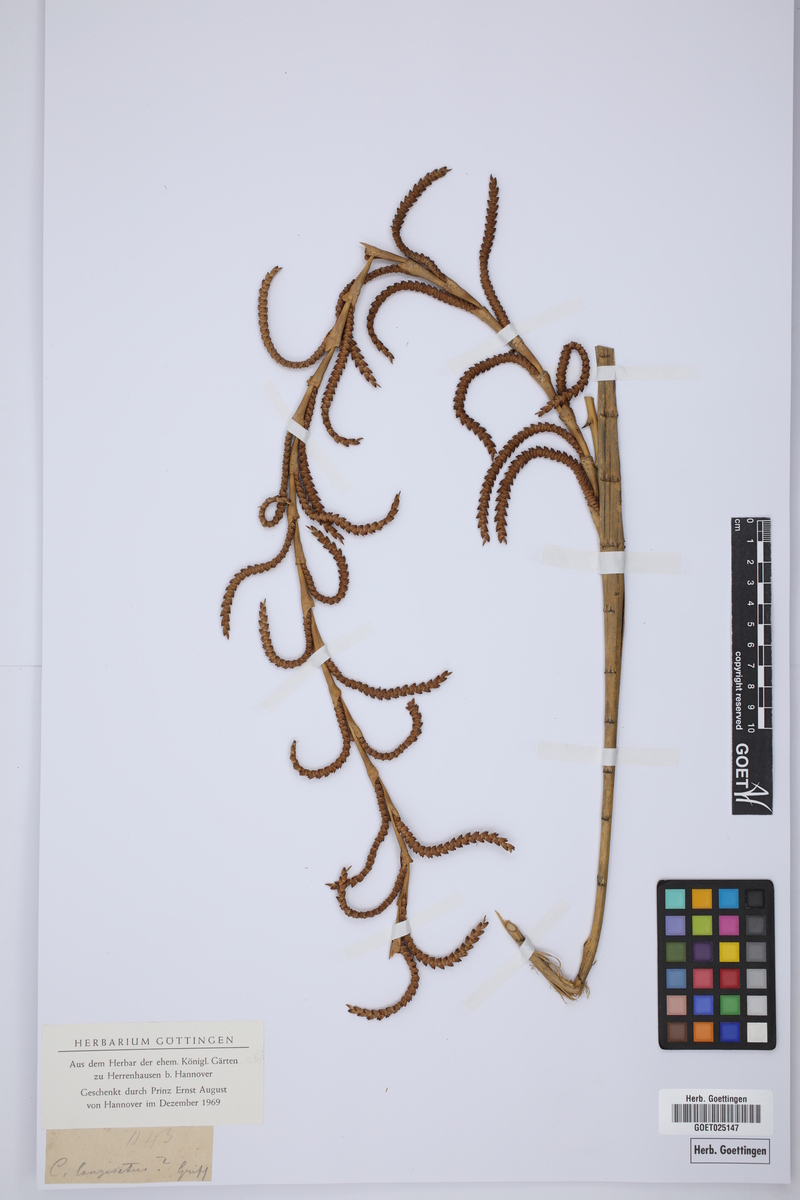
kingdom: Plantae
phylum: Tracheophyta
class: Liliopsida
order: Arecales
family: Arecaceae
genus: Calamus
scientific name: Calamus longisetus
